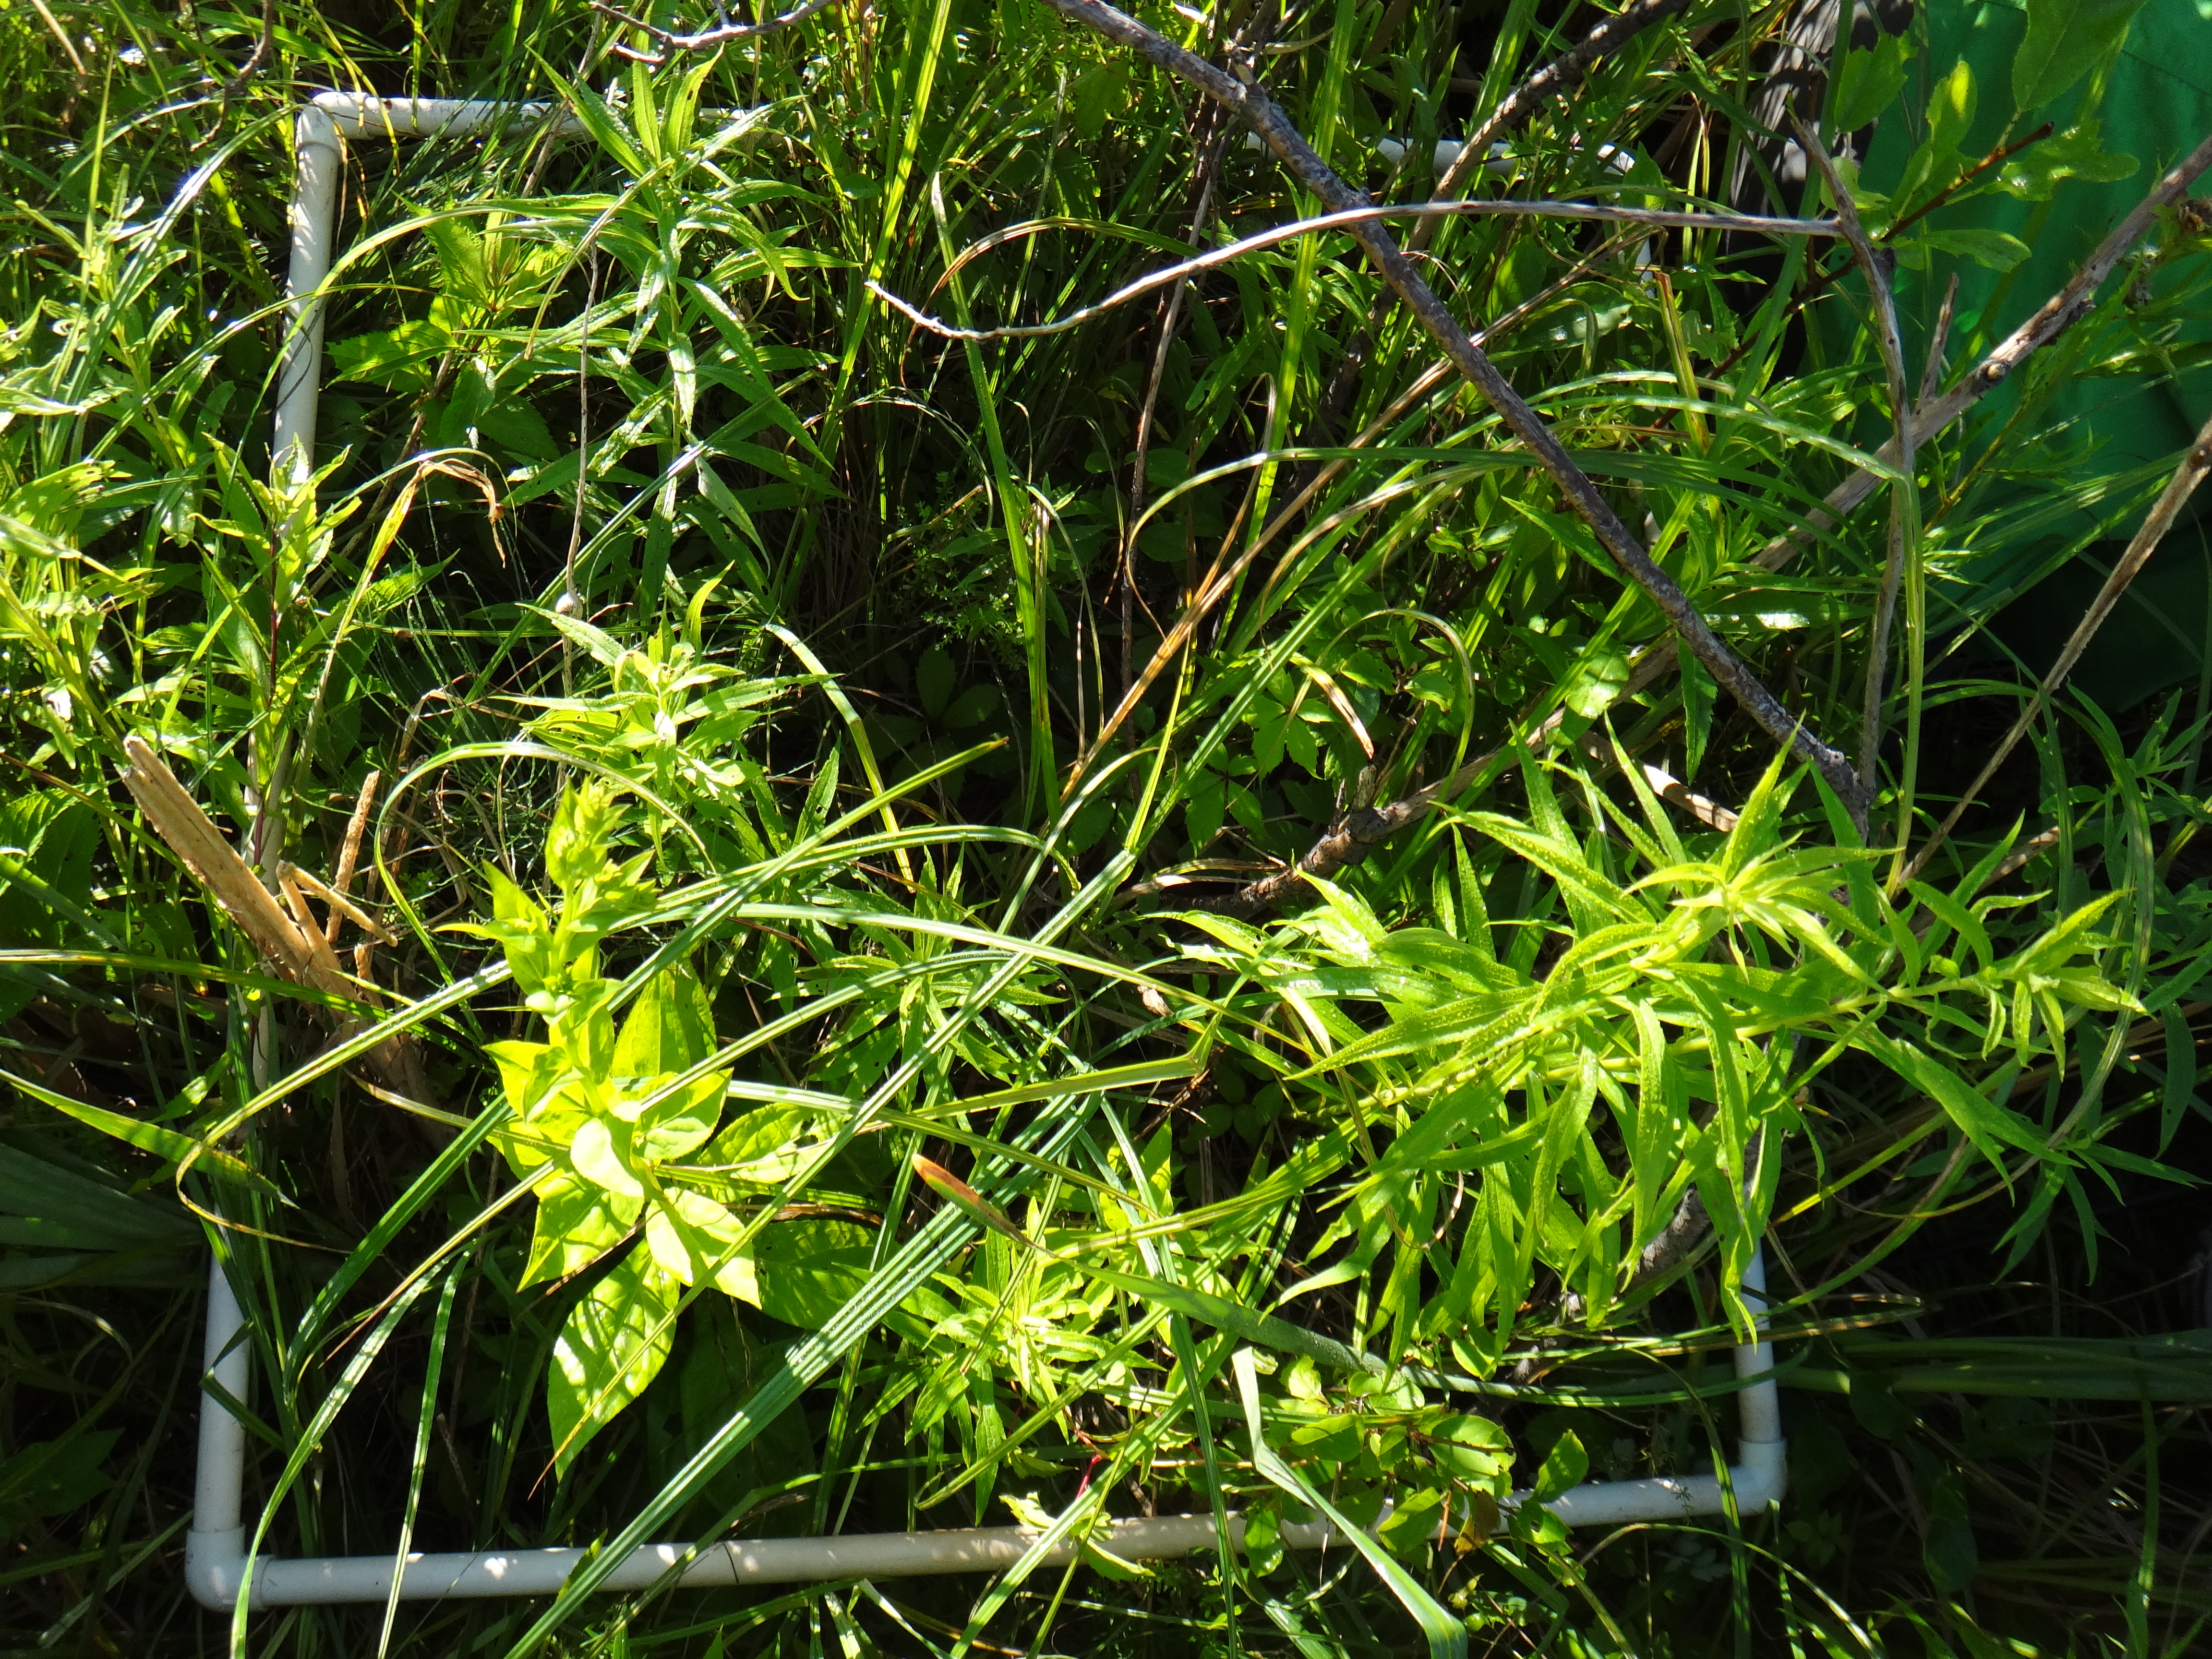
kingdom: Plantae
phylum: Tracheophyta
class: Liliopsida
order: Poales
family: Typhaceae
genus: Typha
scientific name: Typha latifolia
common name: Broadleaf cattail
